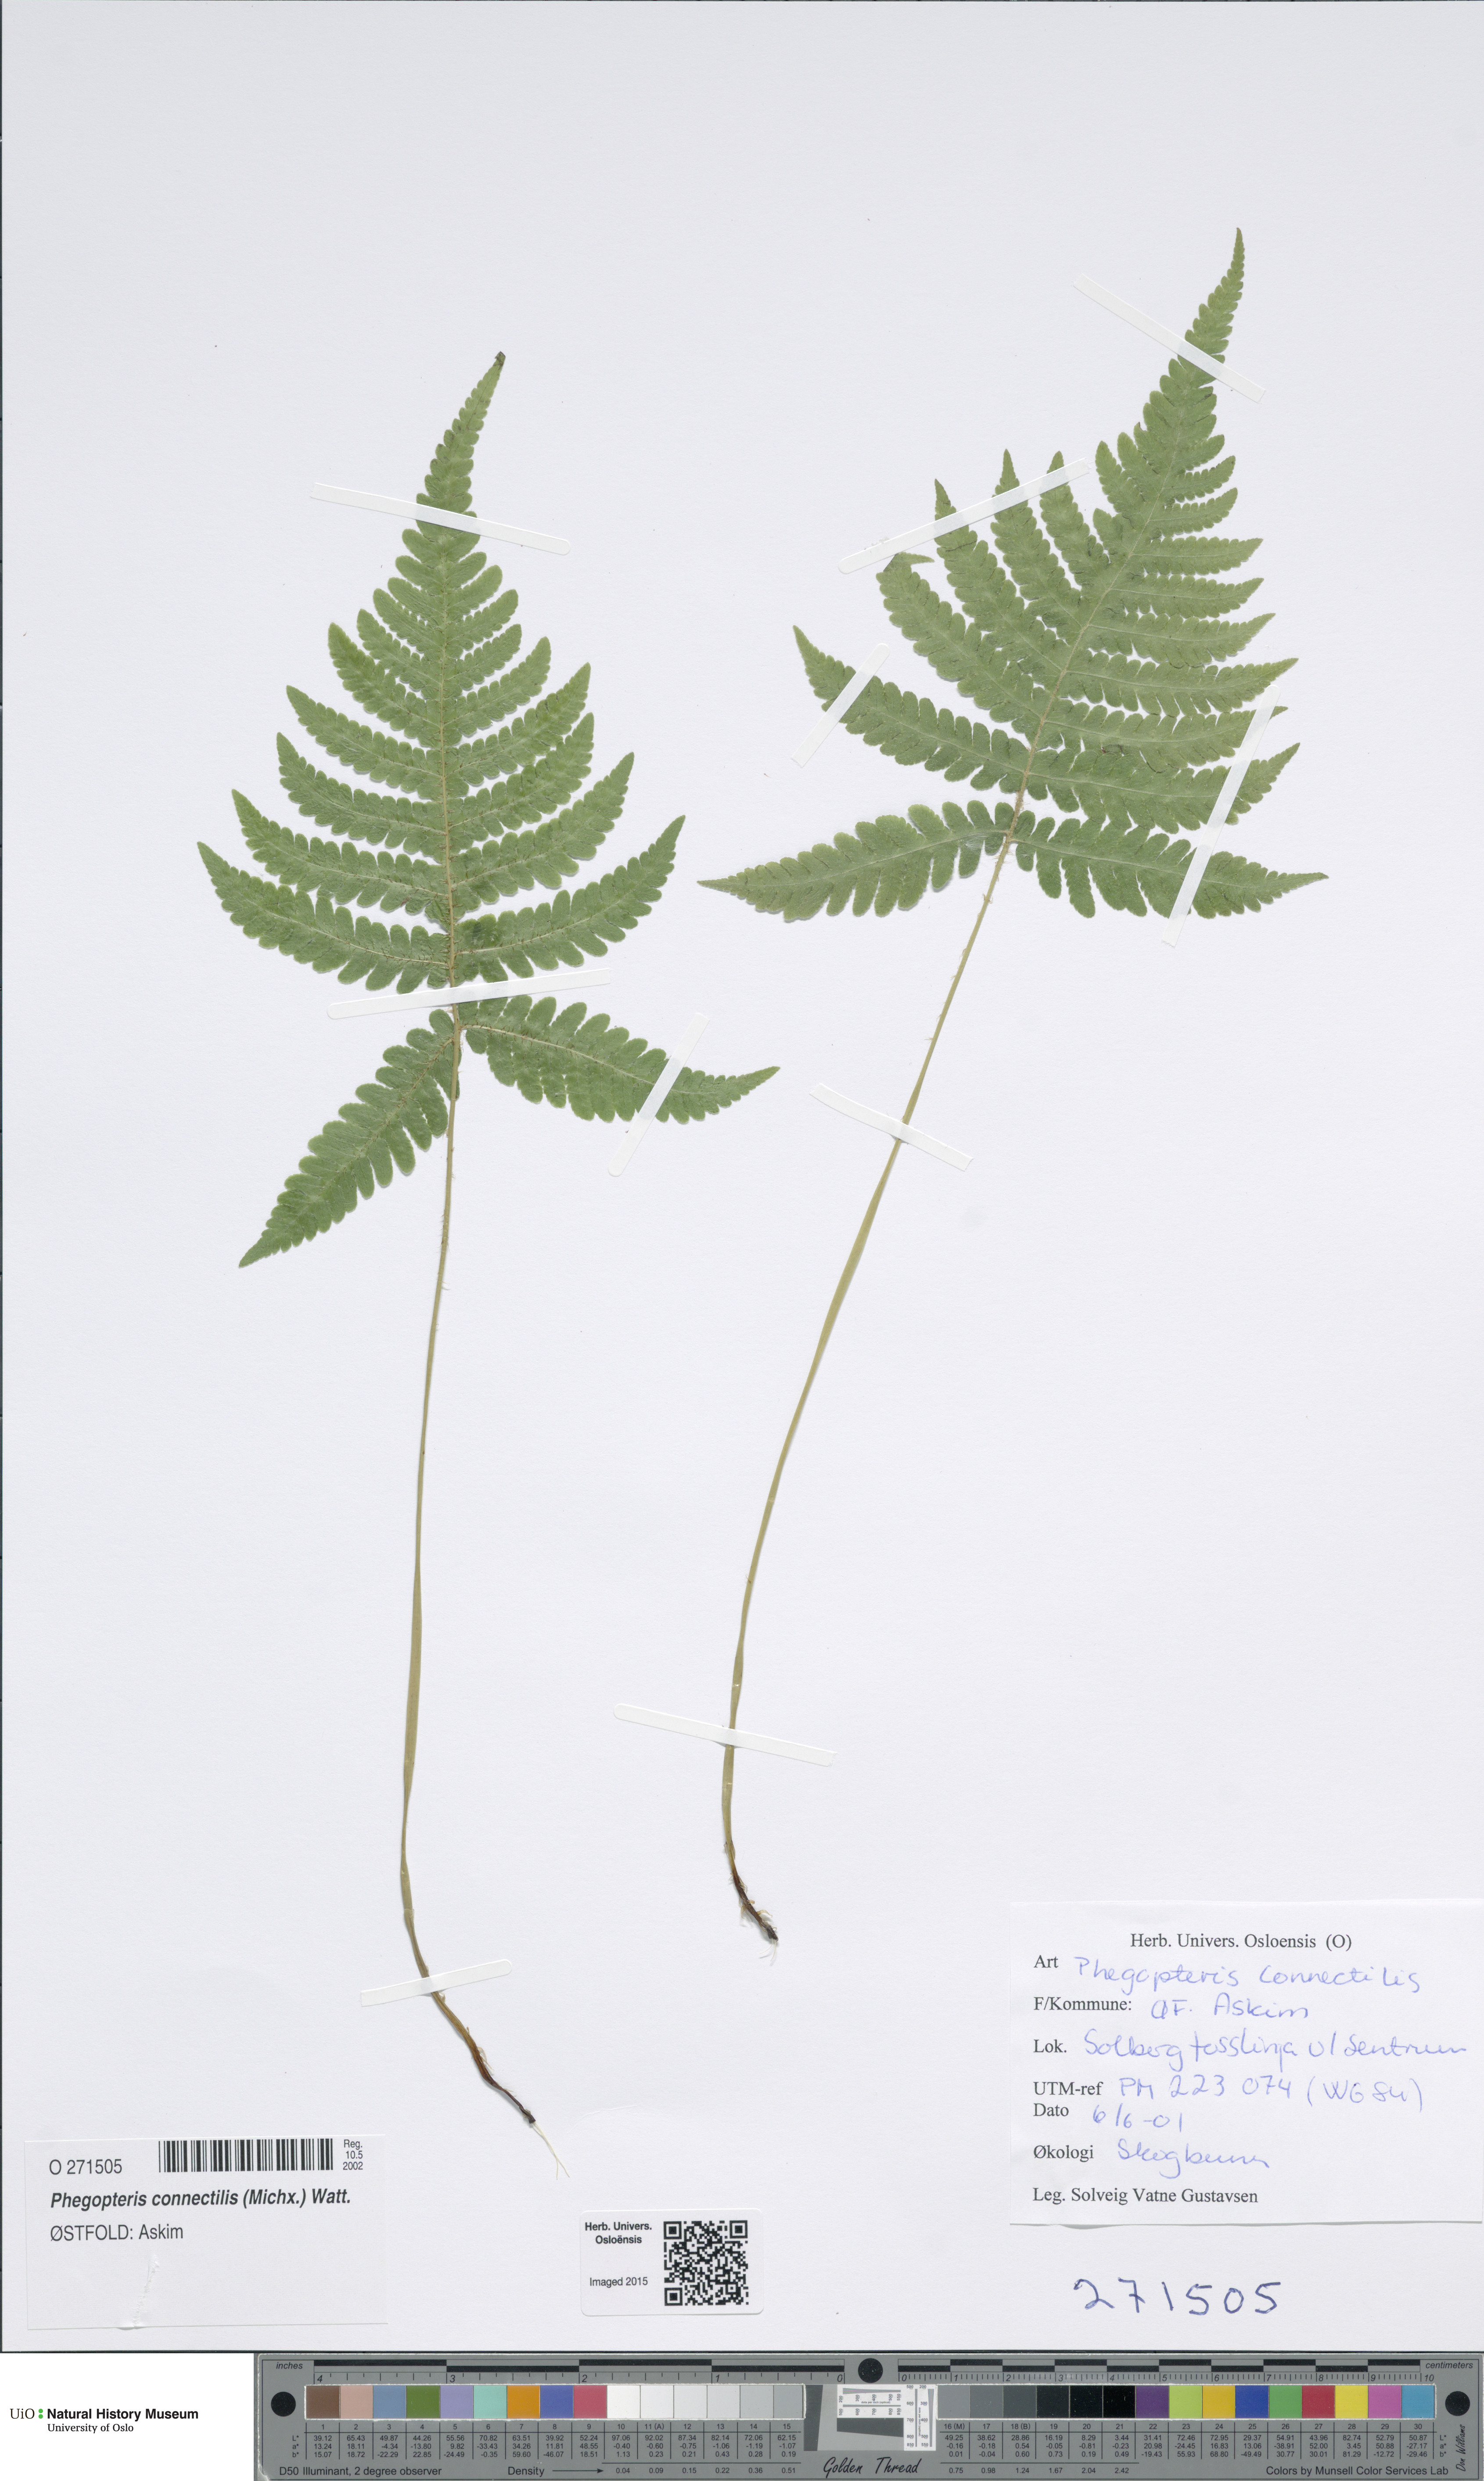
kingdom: Plantae
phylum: Tracheophyta
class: Polypodiopsida
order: Polypodiales
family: Thelypteridaceae
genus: Phegopteris
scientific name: Phegopteris connectilis
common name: Beech fern
